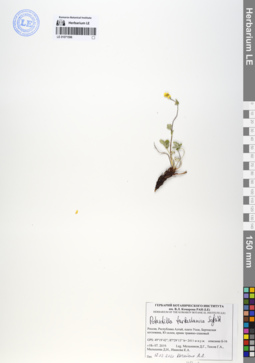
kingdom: Plantae
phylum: Tracheophyta
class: Magnoliopsida
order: Rosales
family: Rosaceae
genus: Potentilla
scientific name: Potentilla turkestanica
